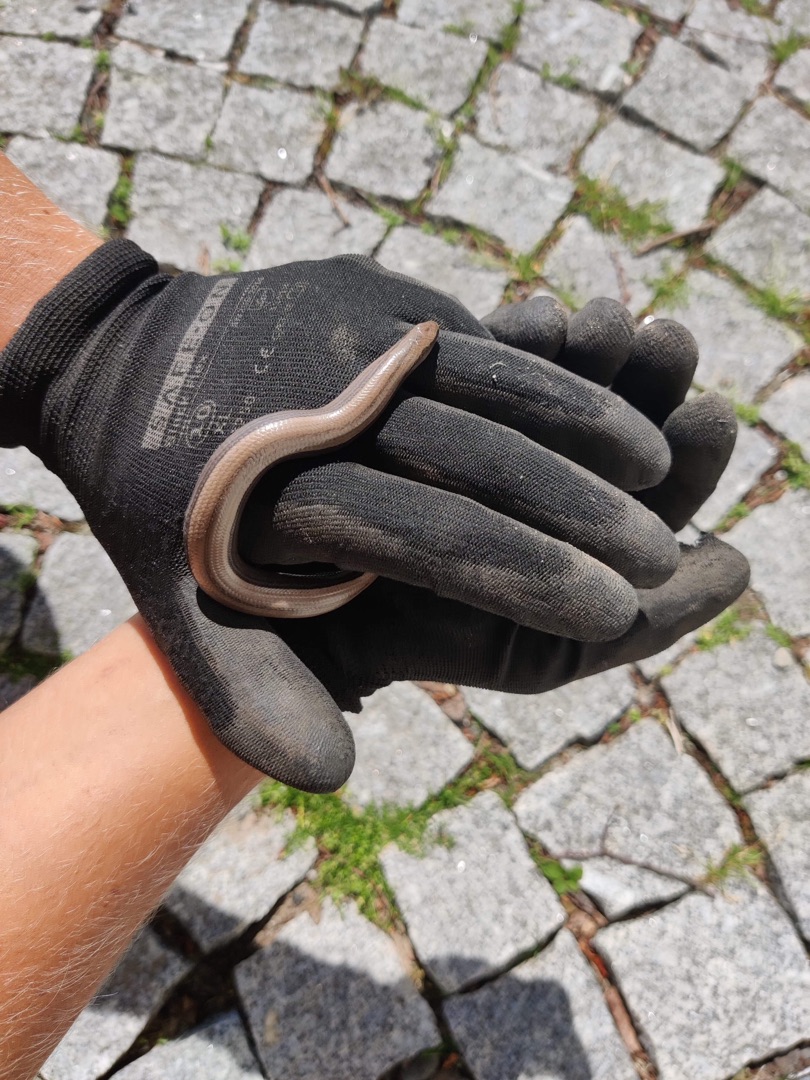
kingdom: Animalia
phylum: Chordata
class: Squamata
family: Anguidae
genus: Anguis
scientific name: Anguis fragilis
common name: Stålorm
